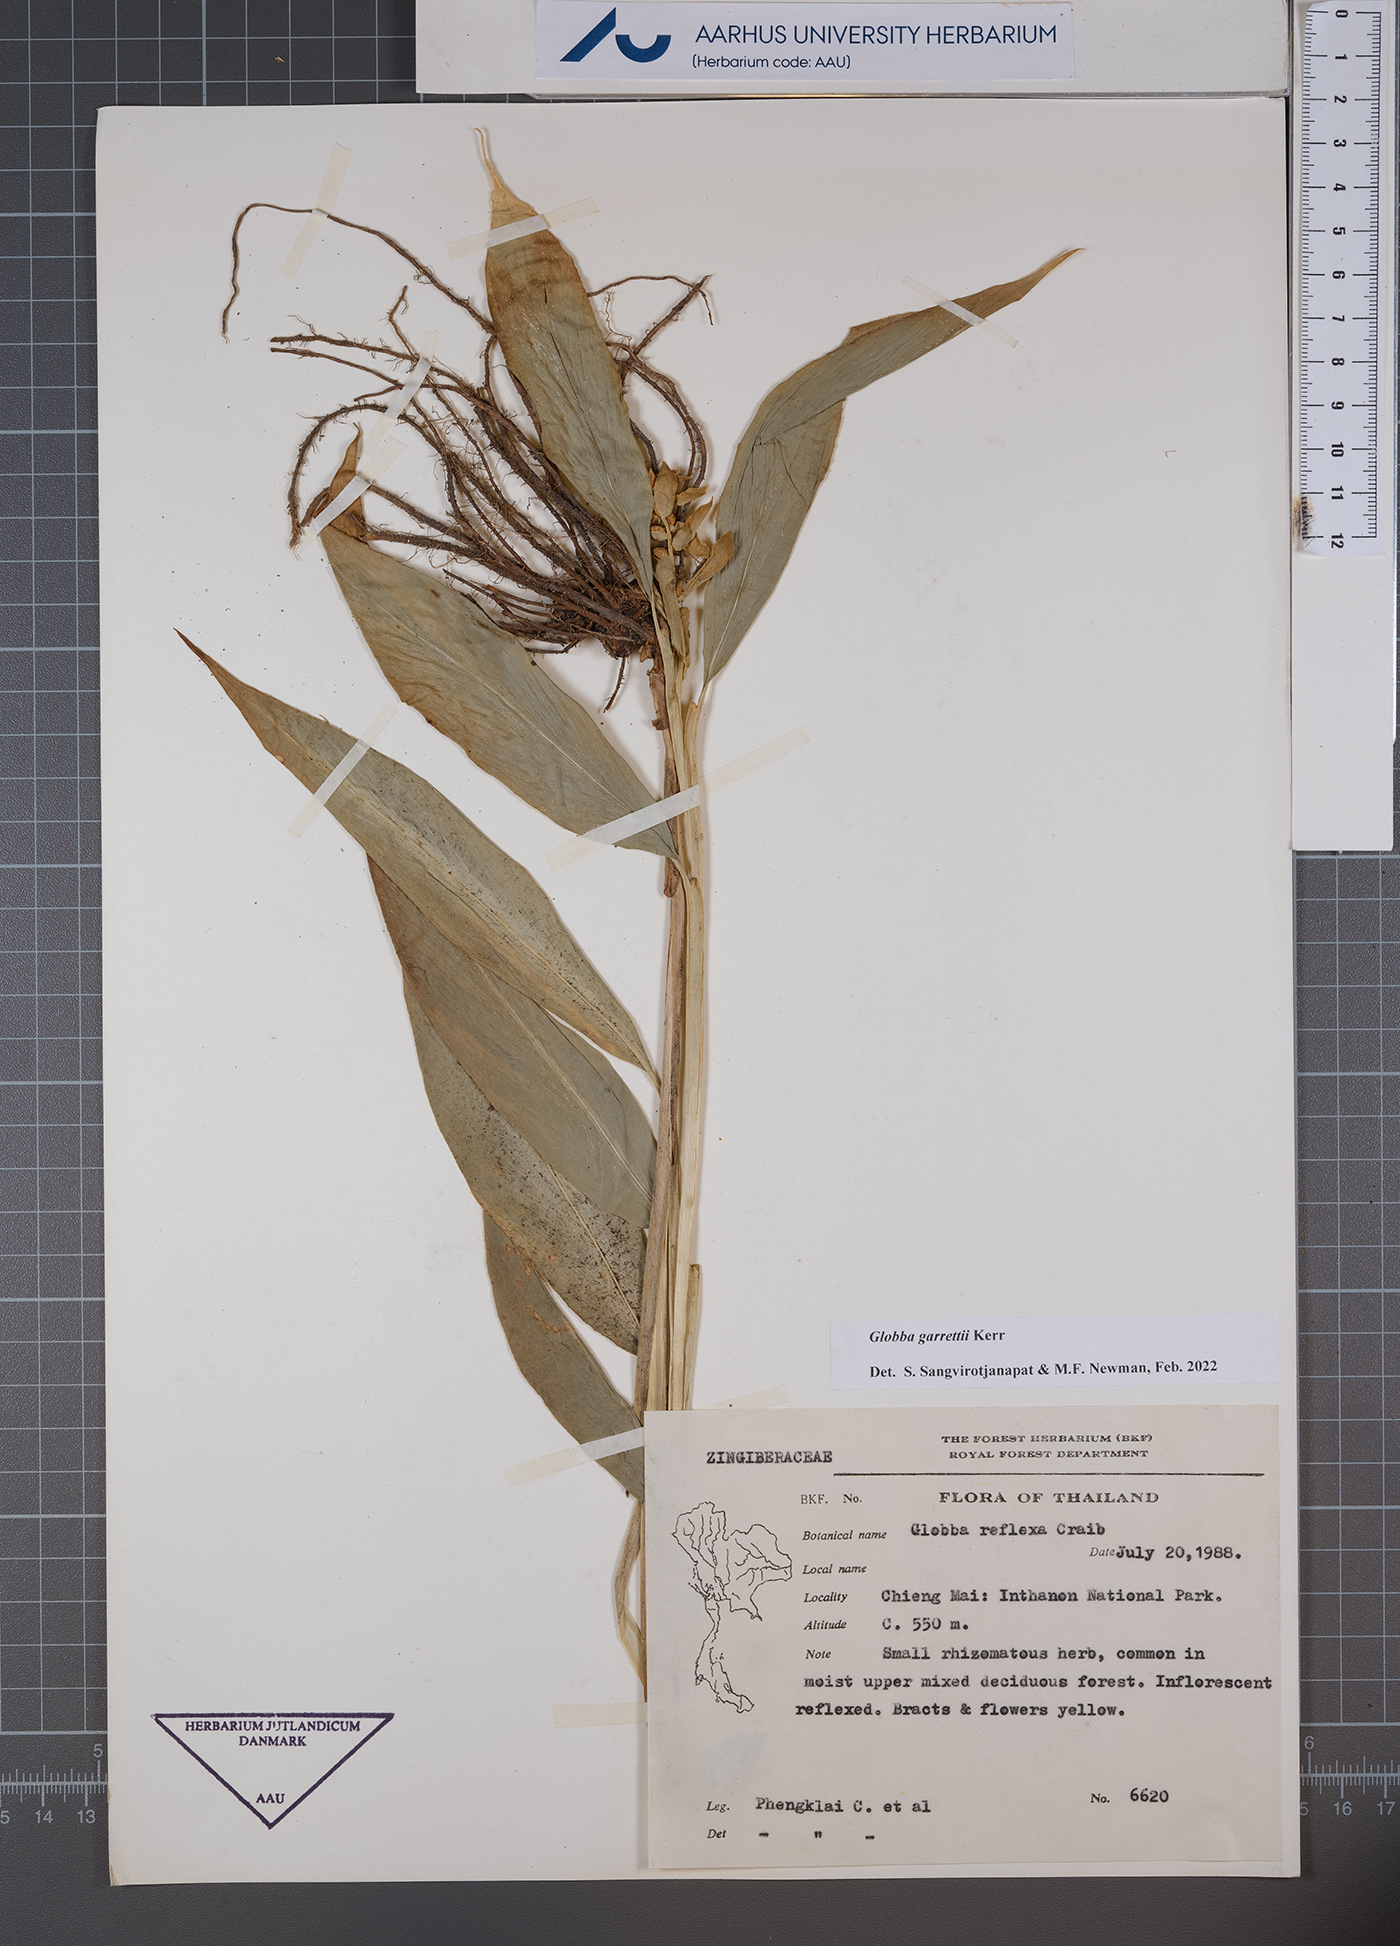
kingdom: Plantae
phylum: Tracheophyta
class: Liliopsida
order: Zingiberales
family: Zingiberaceae
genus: Globba
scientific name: Globba garrettii
